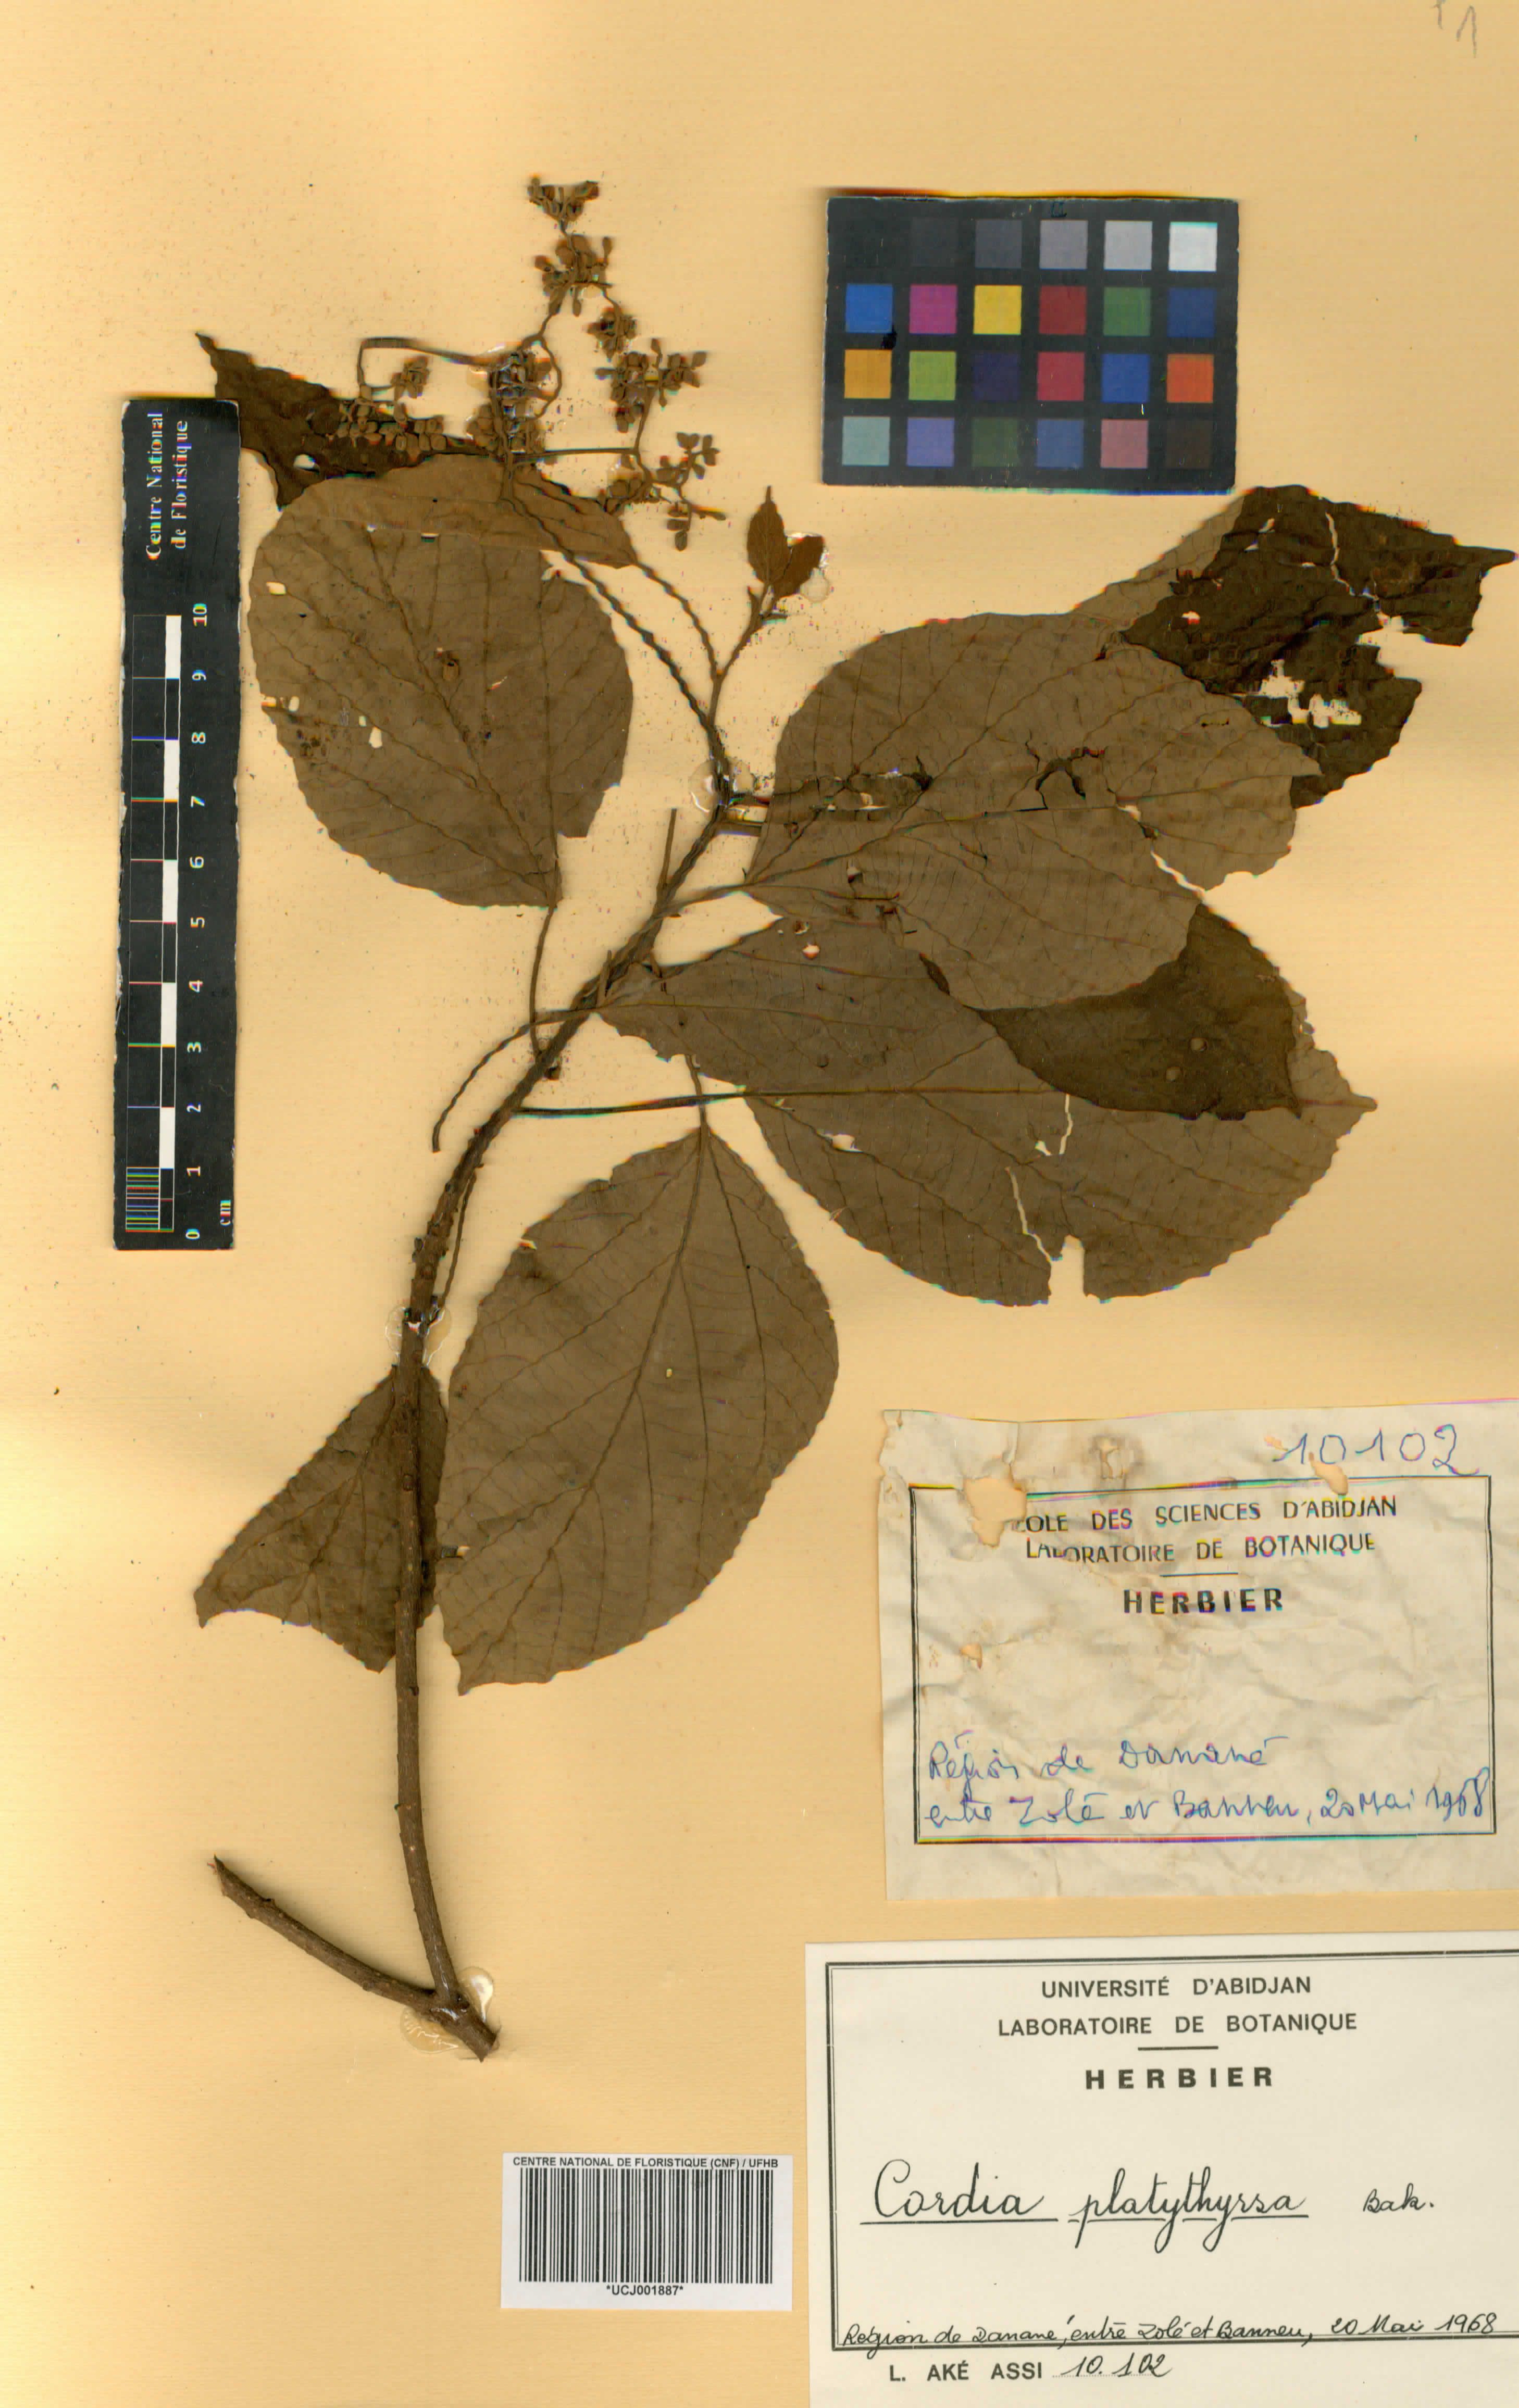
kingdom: Plantae
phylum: Tracheophyta
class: Magnoliopsida
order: Boraginales
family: Cordiaceae
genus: Cordia
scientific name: Cordia platythyrsa
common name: West african cordia
